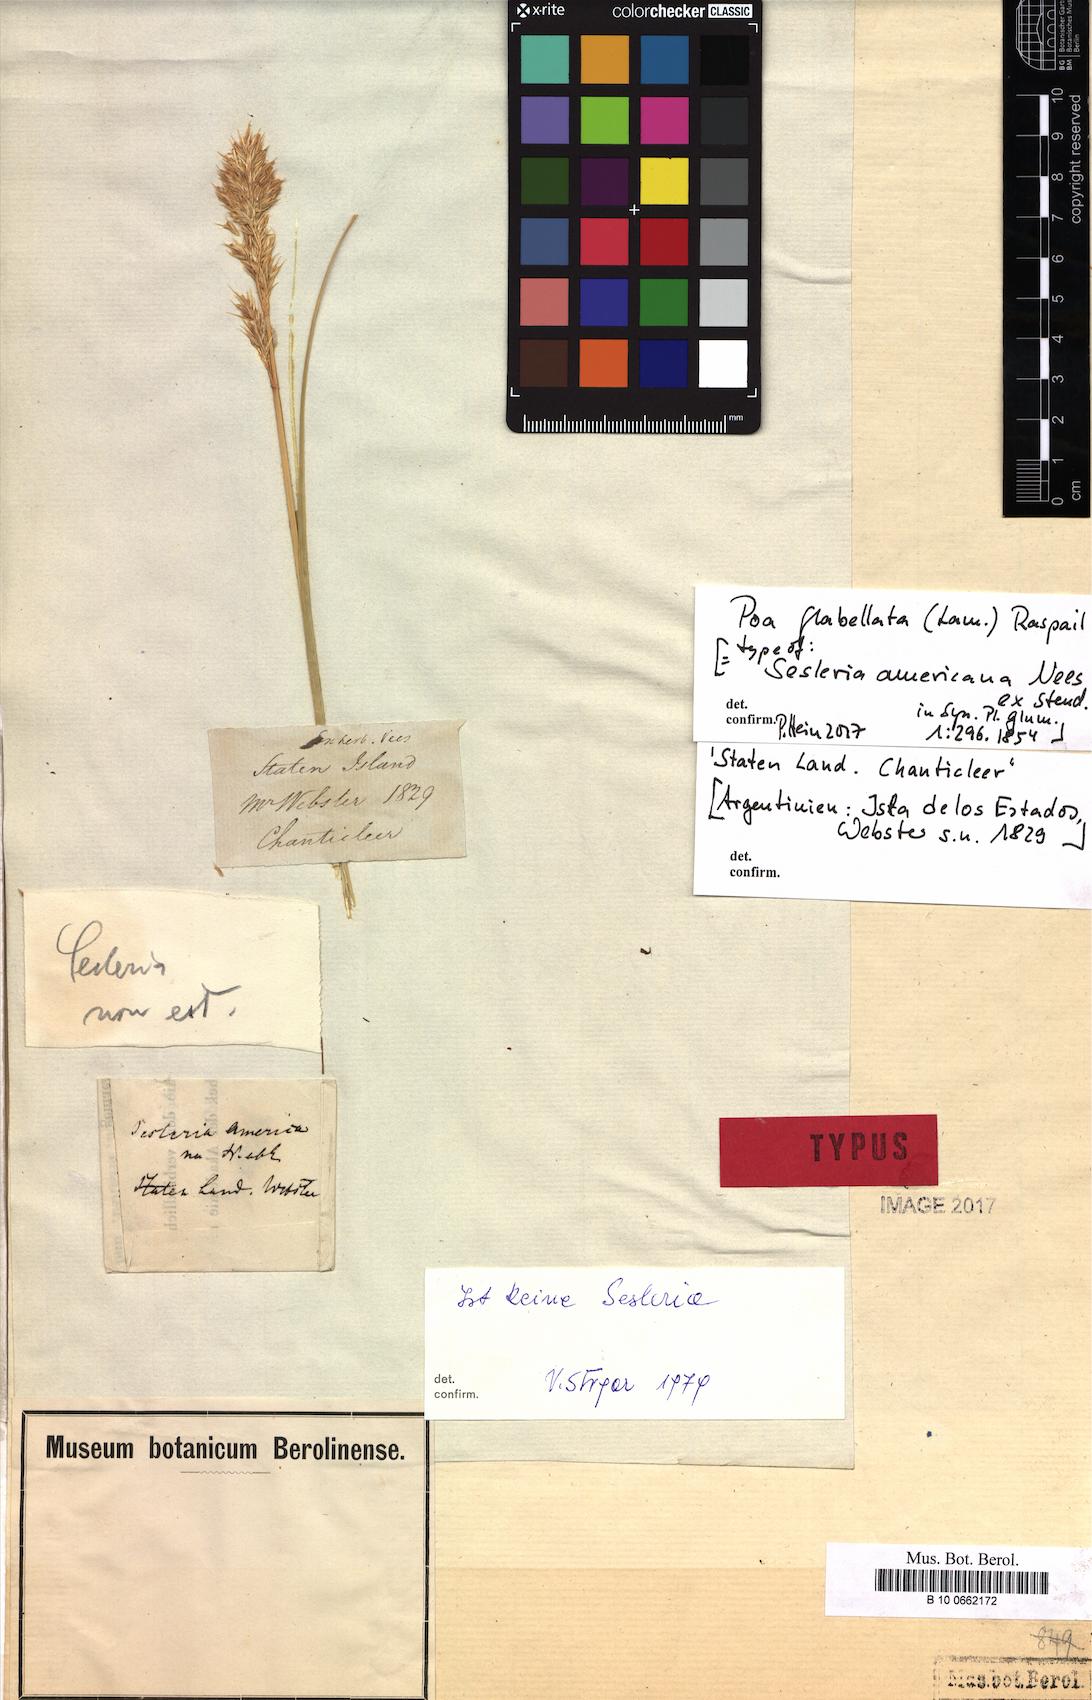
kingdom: Plantae
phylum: Tracheophyta
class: Liliopsida
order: Poales
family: Poaceae
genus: Poa
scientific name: Poa flabellata
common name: Tussac-grass
